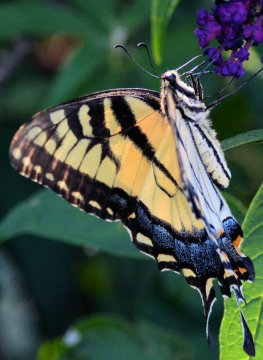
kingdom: Animalia
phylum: Arthropoda
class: Insecta
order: Lepidoptera
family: Papilionidae
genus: Pterourus
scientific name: Pterourus glaucus
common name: Eastern Tiger Swallowtail
